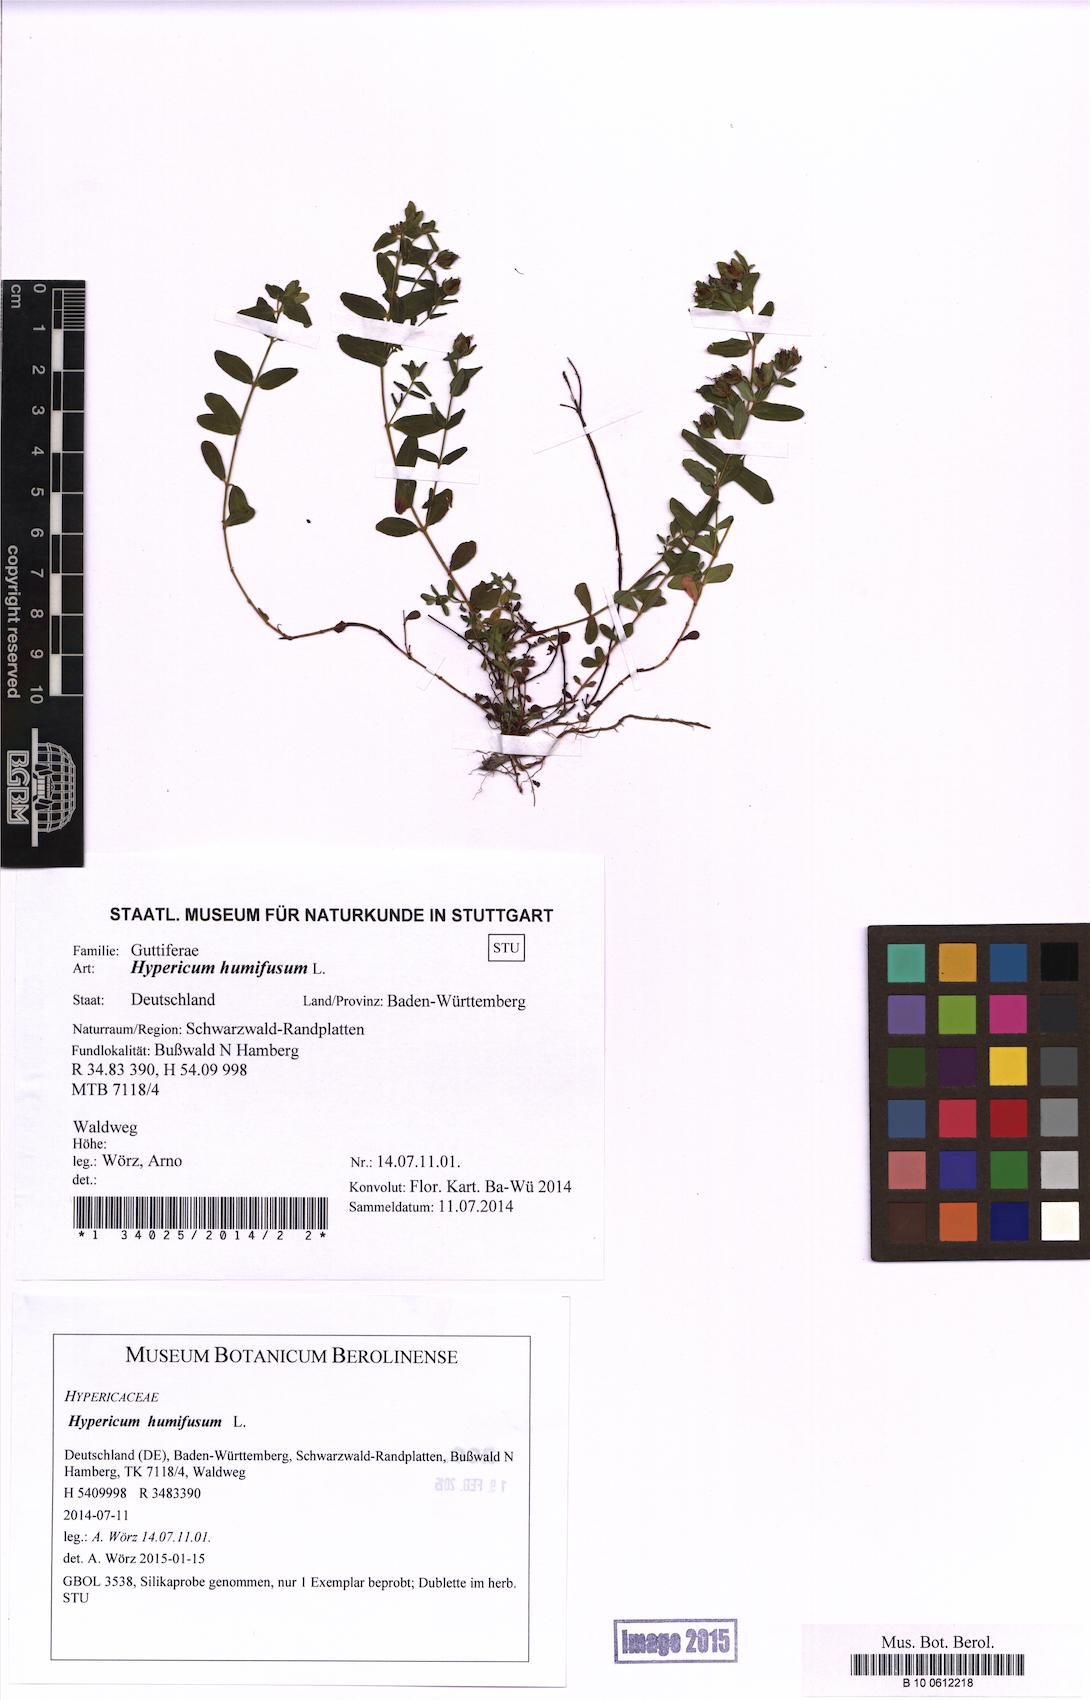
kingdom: Plantae
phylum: Tracheophyta
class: Magnoliopsida
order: Malpighiales
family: Hypericaceae
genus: Hypericum
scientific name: Hypericum humifusum
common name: Trailing st. john's-wort
